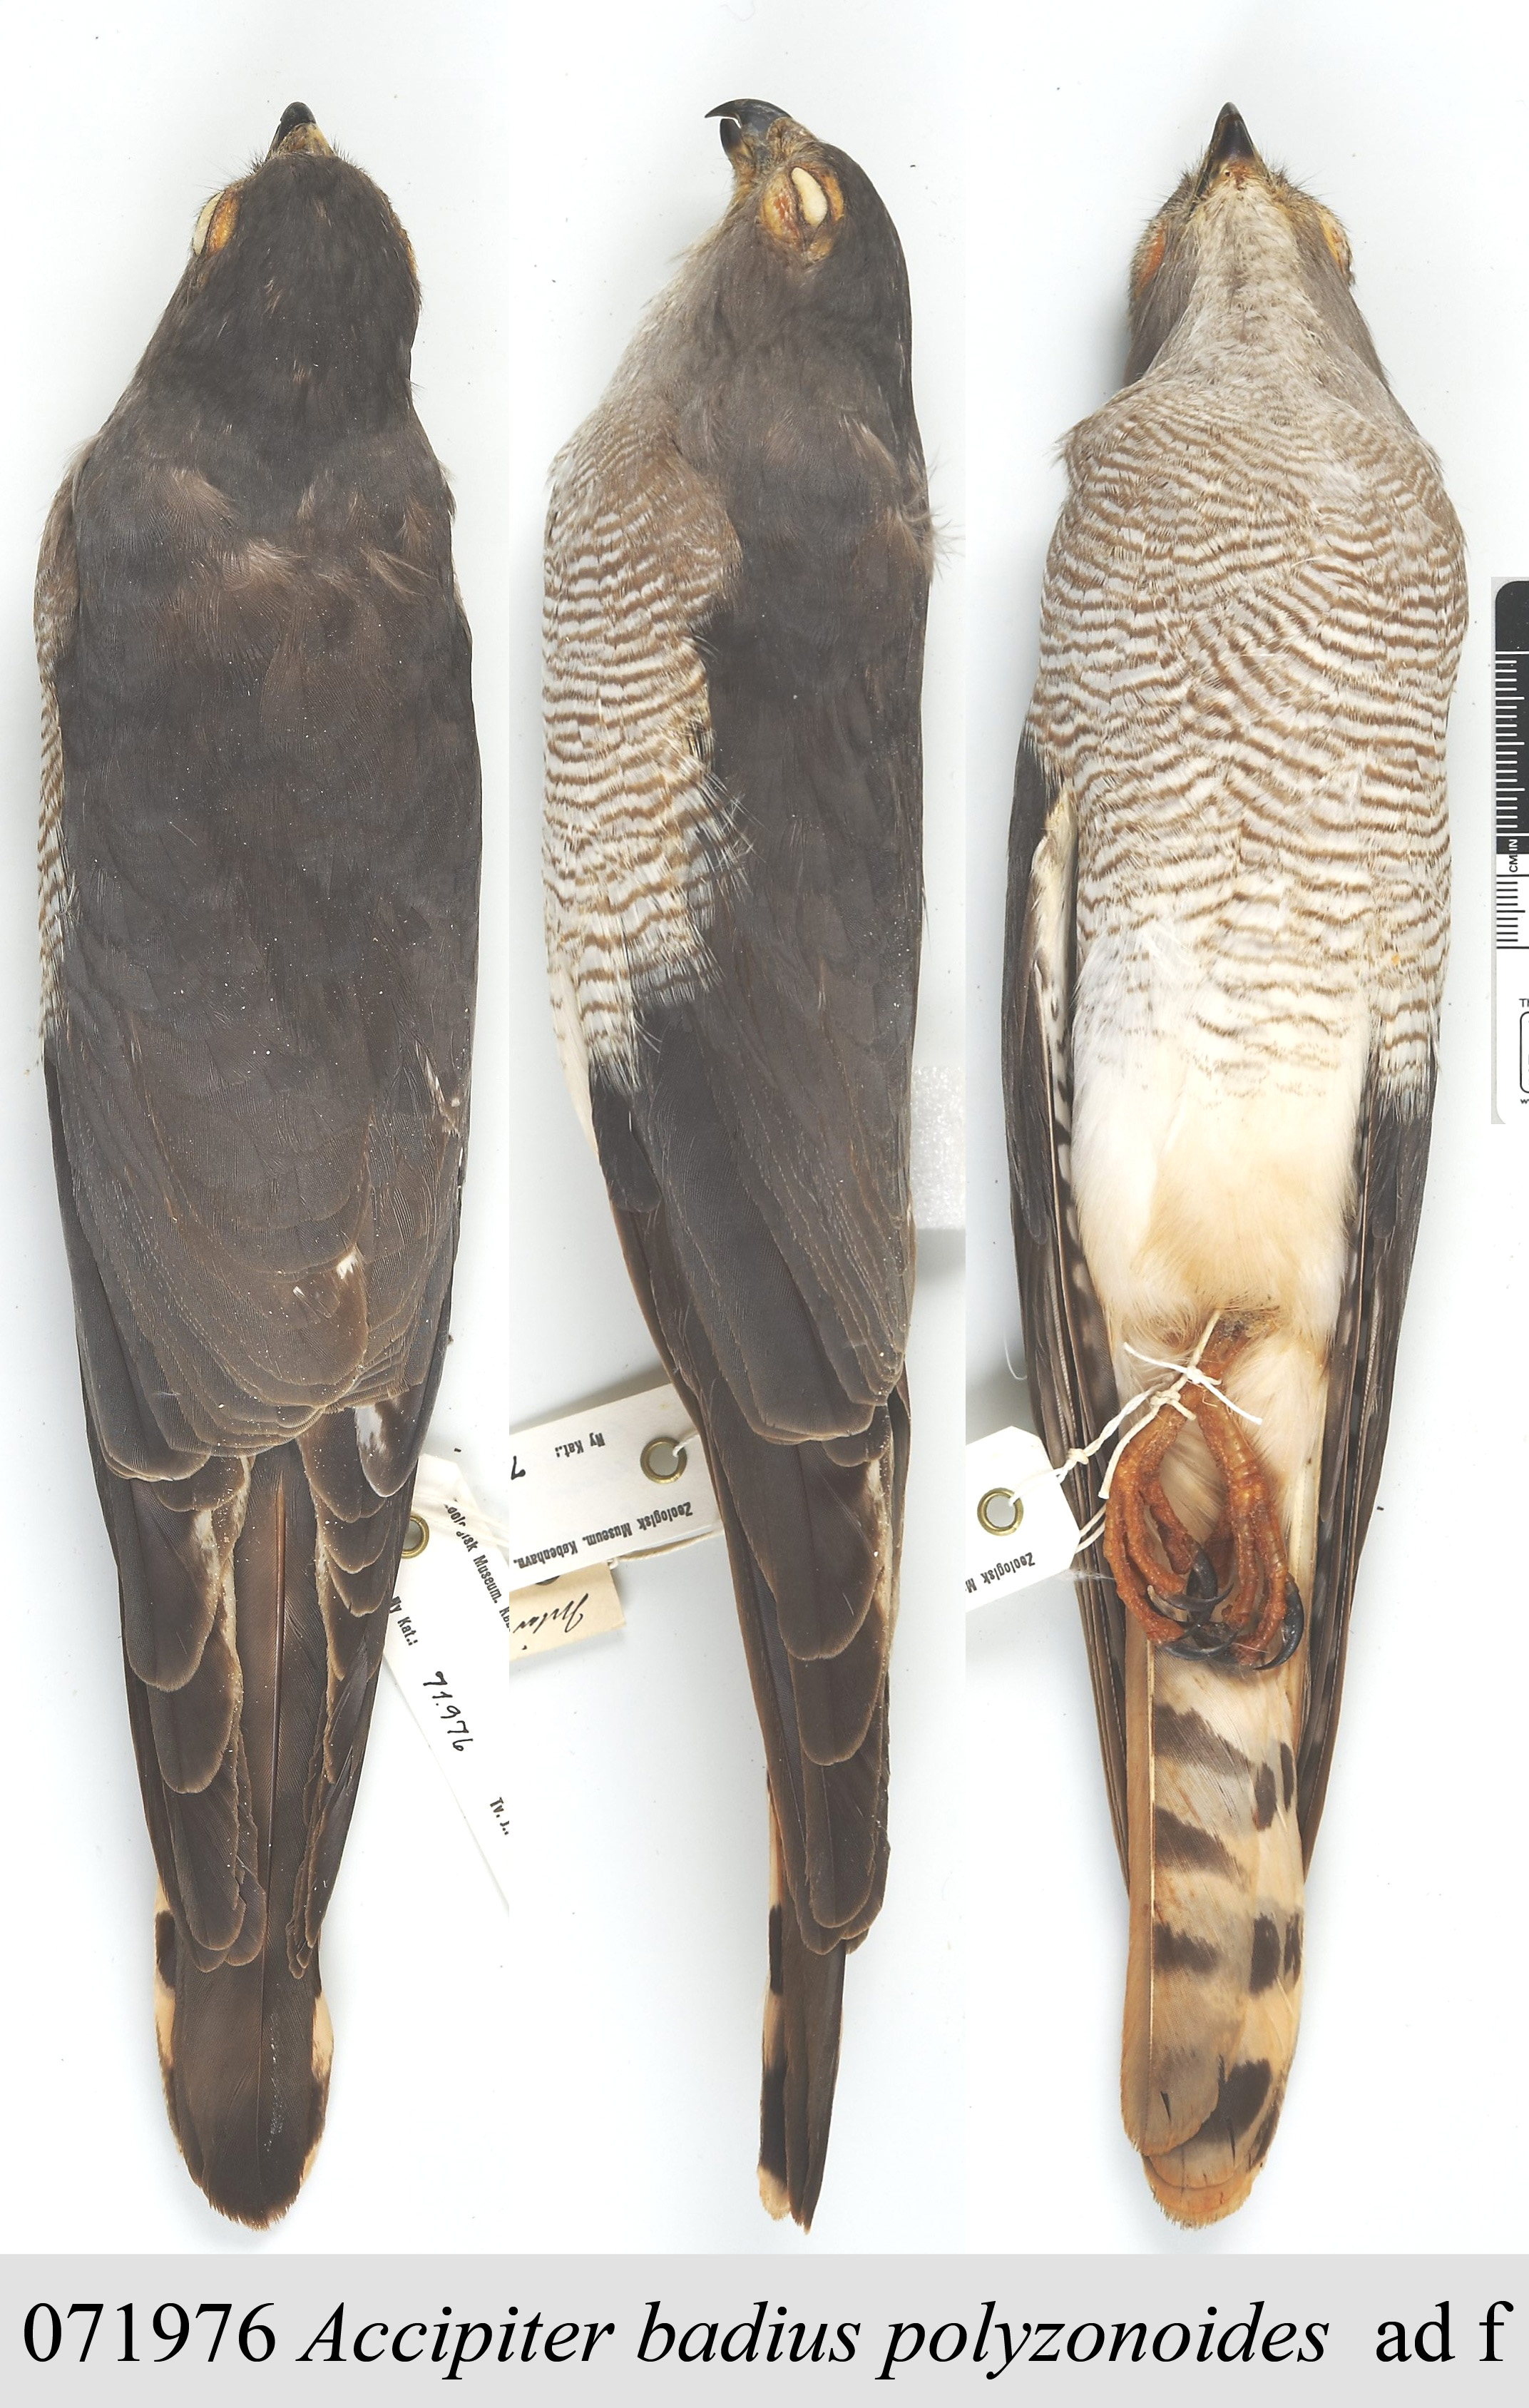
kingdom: Animalia
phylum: Chordata
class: Aves
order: Accipitriformes
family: Accipitridae
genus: Accipiter
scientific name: Accipiter badius
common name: Shikra
